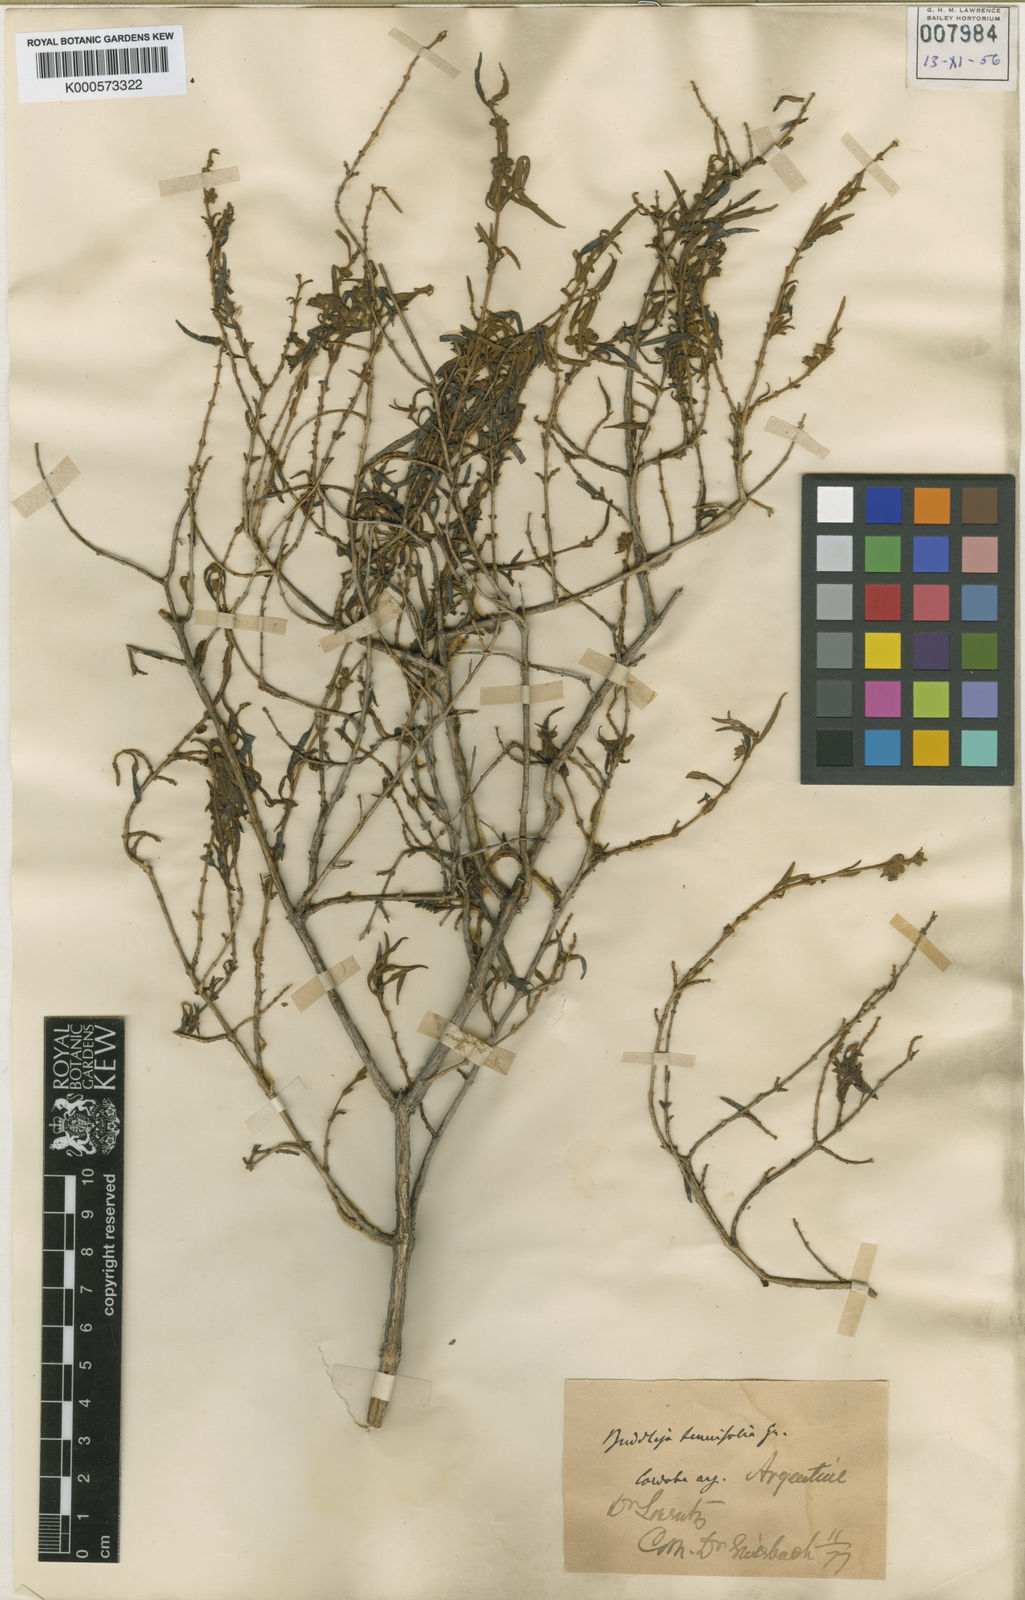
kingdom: Plantae
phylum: Tracheophyta
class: Magnoliopsida
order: Lamiales
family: Scrophulariaceae
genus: Buddleja
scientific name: Buddleja mendozensis
